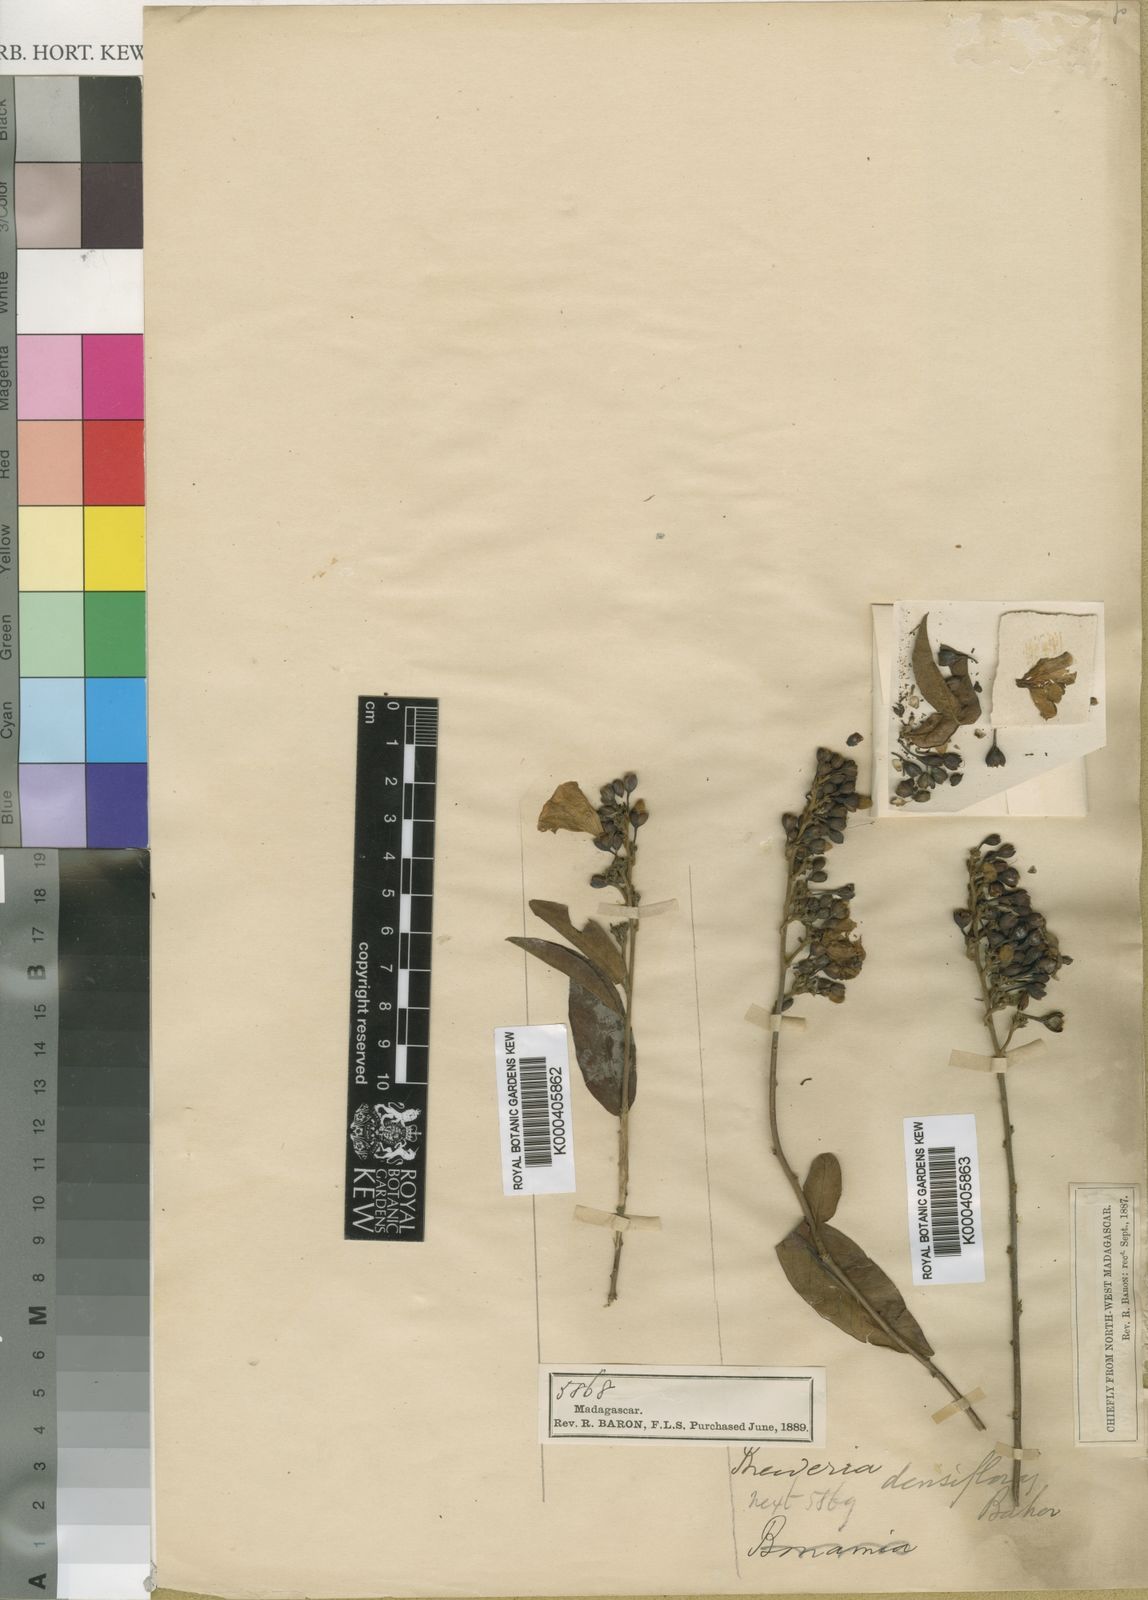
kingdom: Plantae
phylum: Tracheophyta
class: Magnoliopsida
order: Solanales
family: Convolvulaceae
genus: Bonamia
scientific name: Bonamia densiflora
